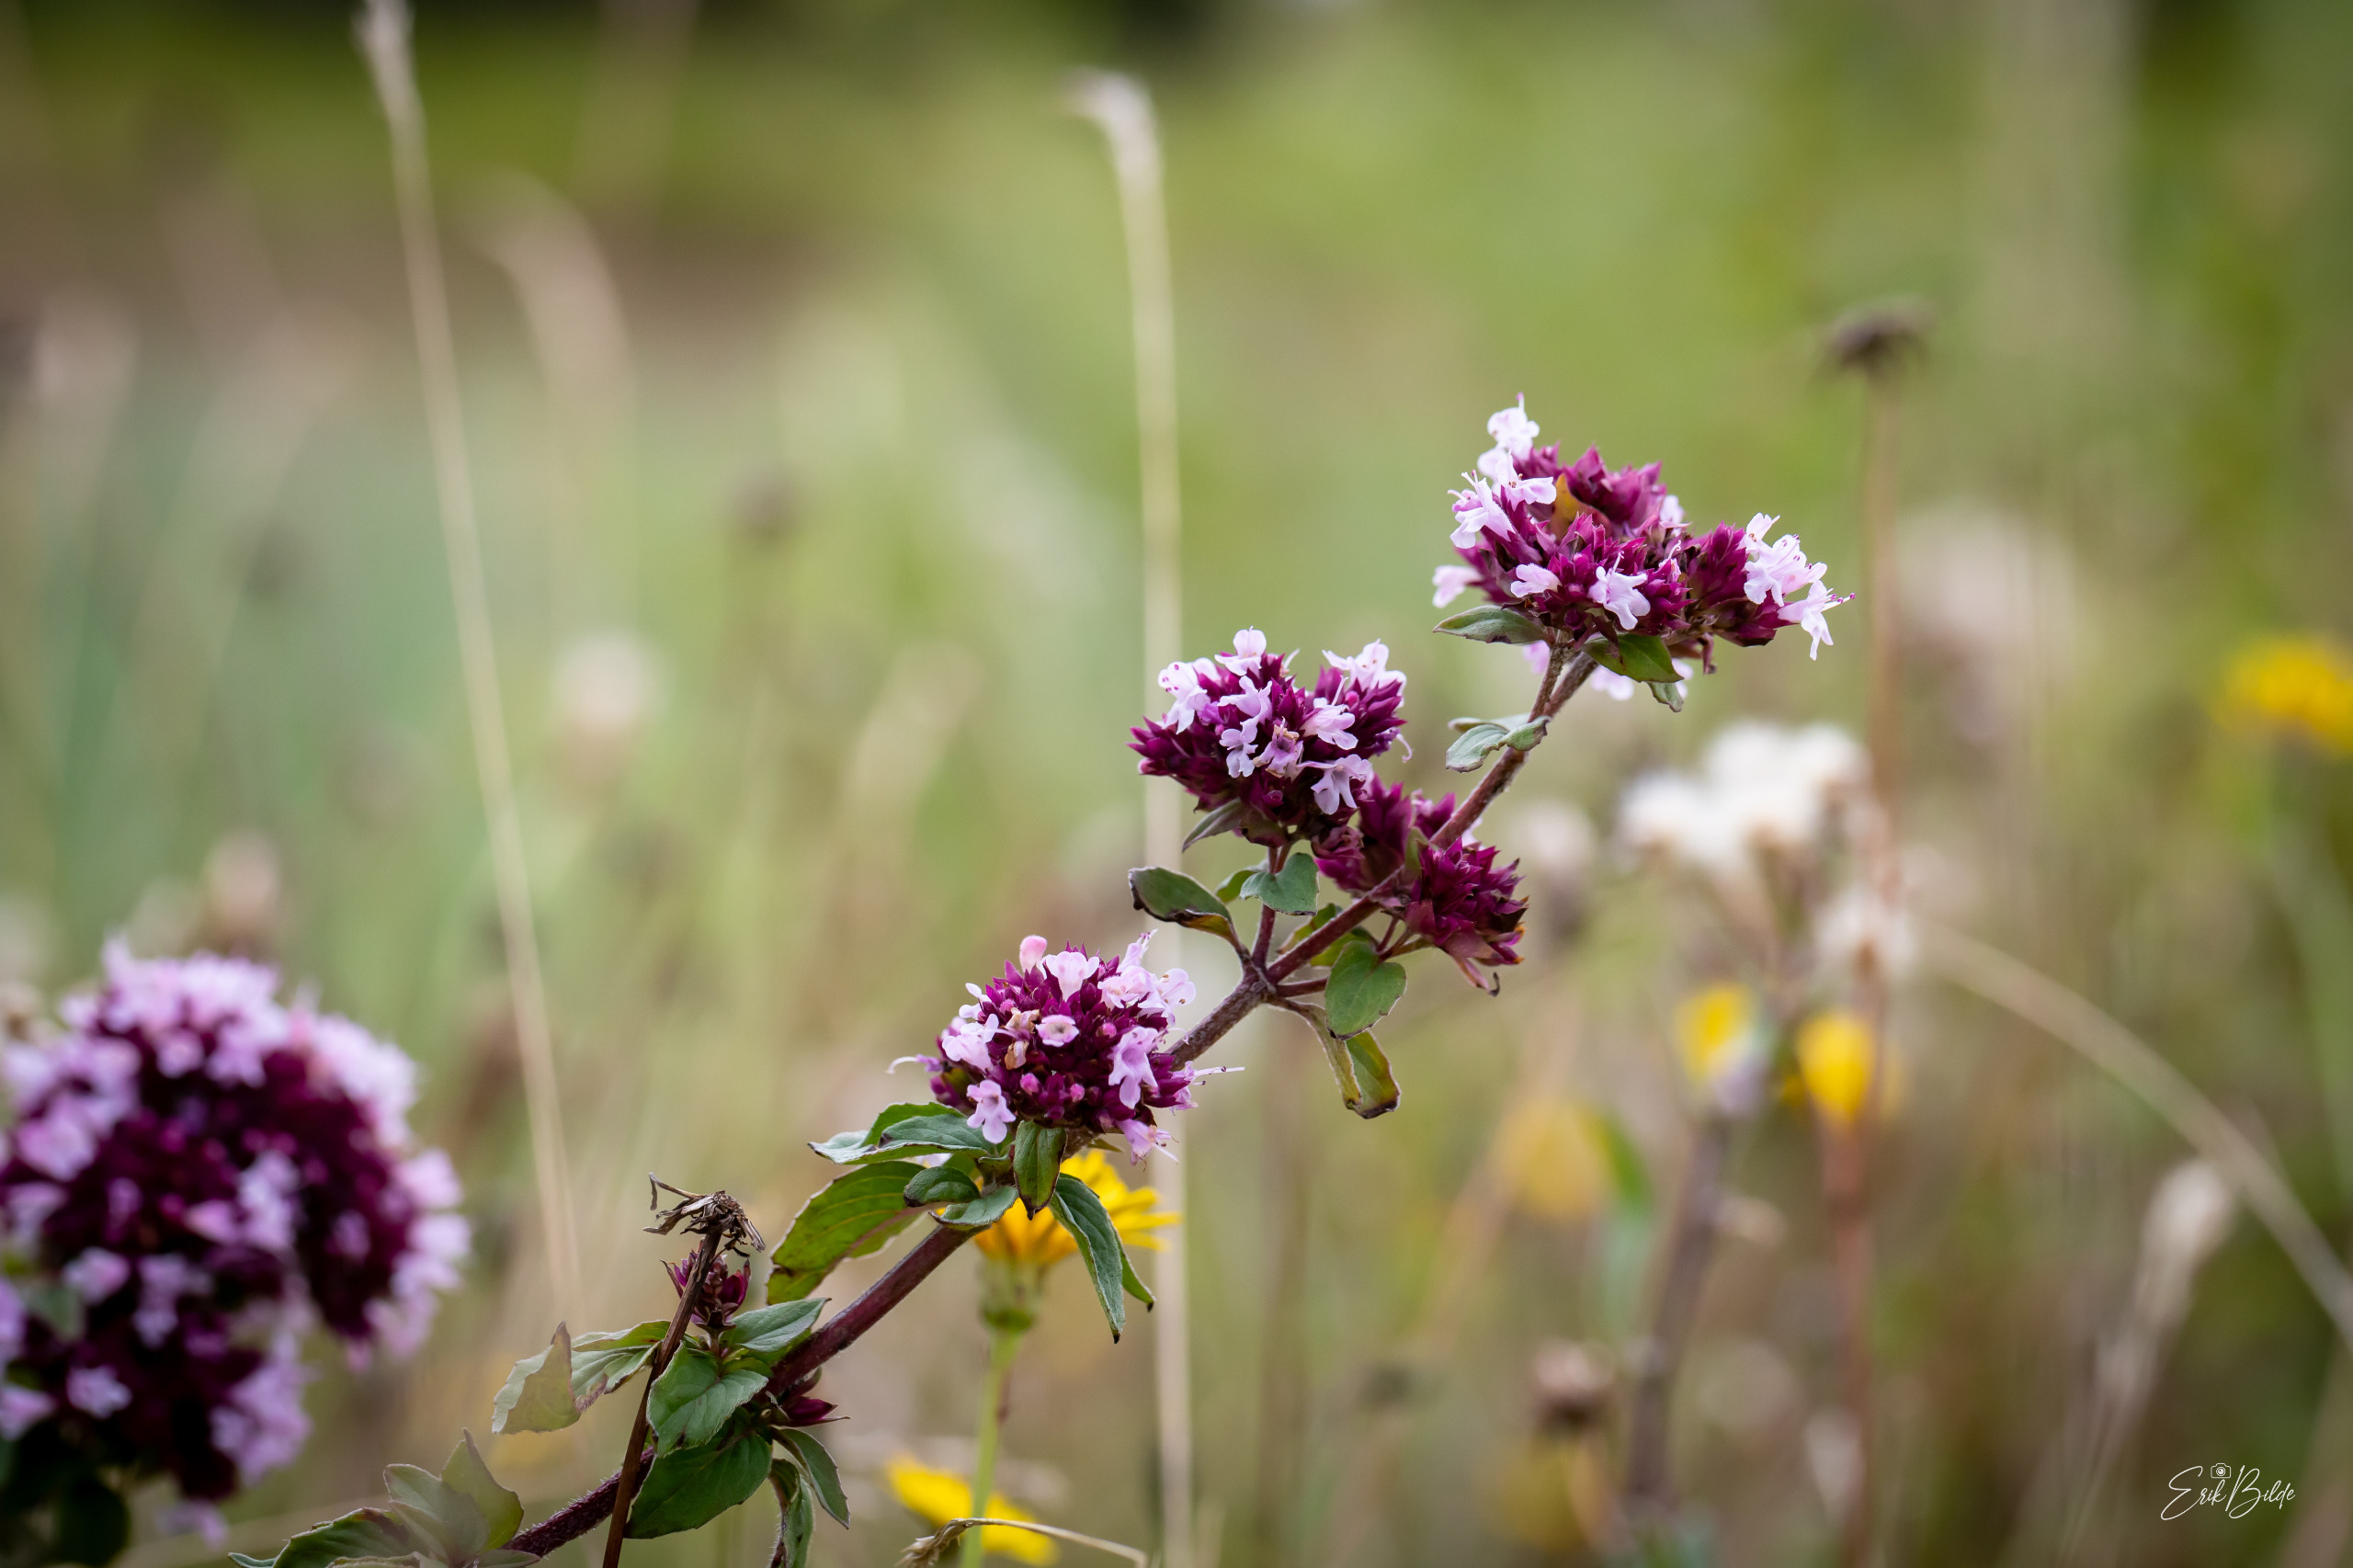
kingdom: Plantae
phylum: Tracheophyta
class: Magnoliopsida
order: Lamiales
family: Lamiaceae
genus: Origanum
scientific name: Origanum vulgare
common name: Merian
